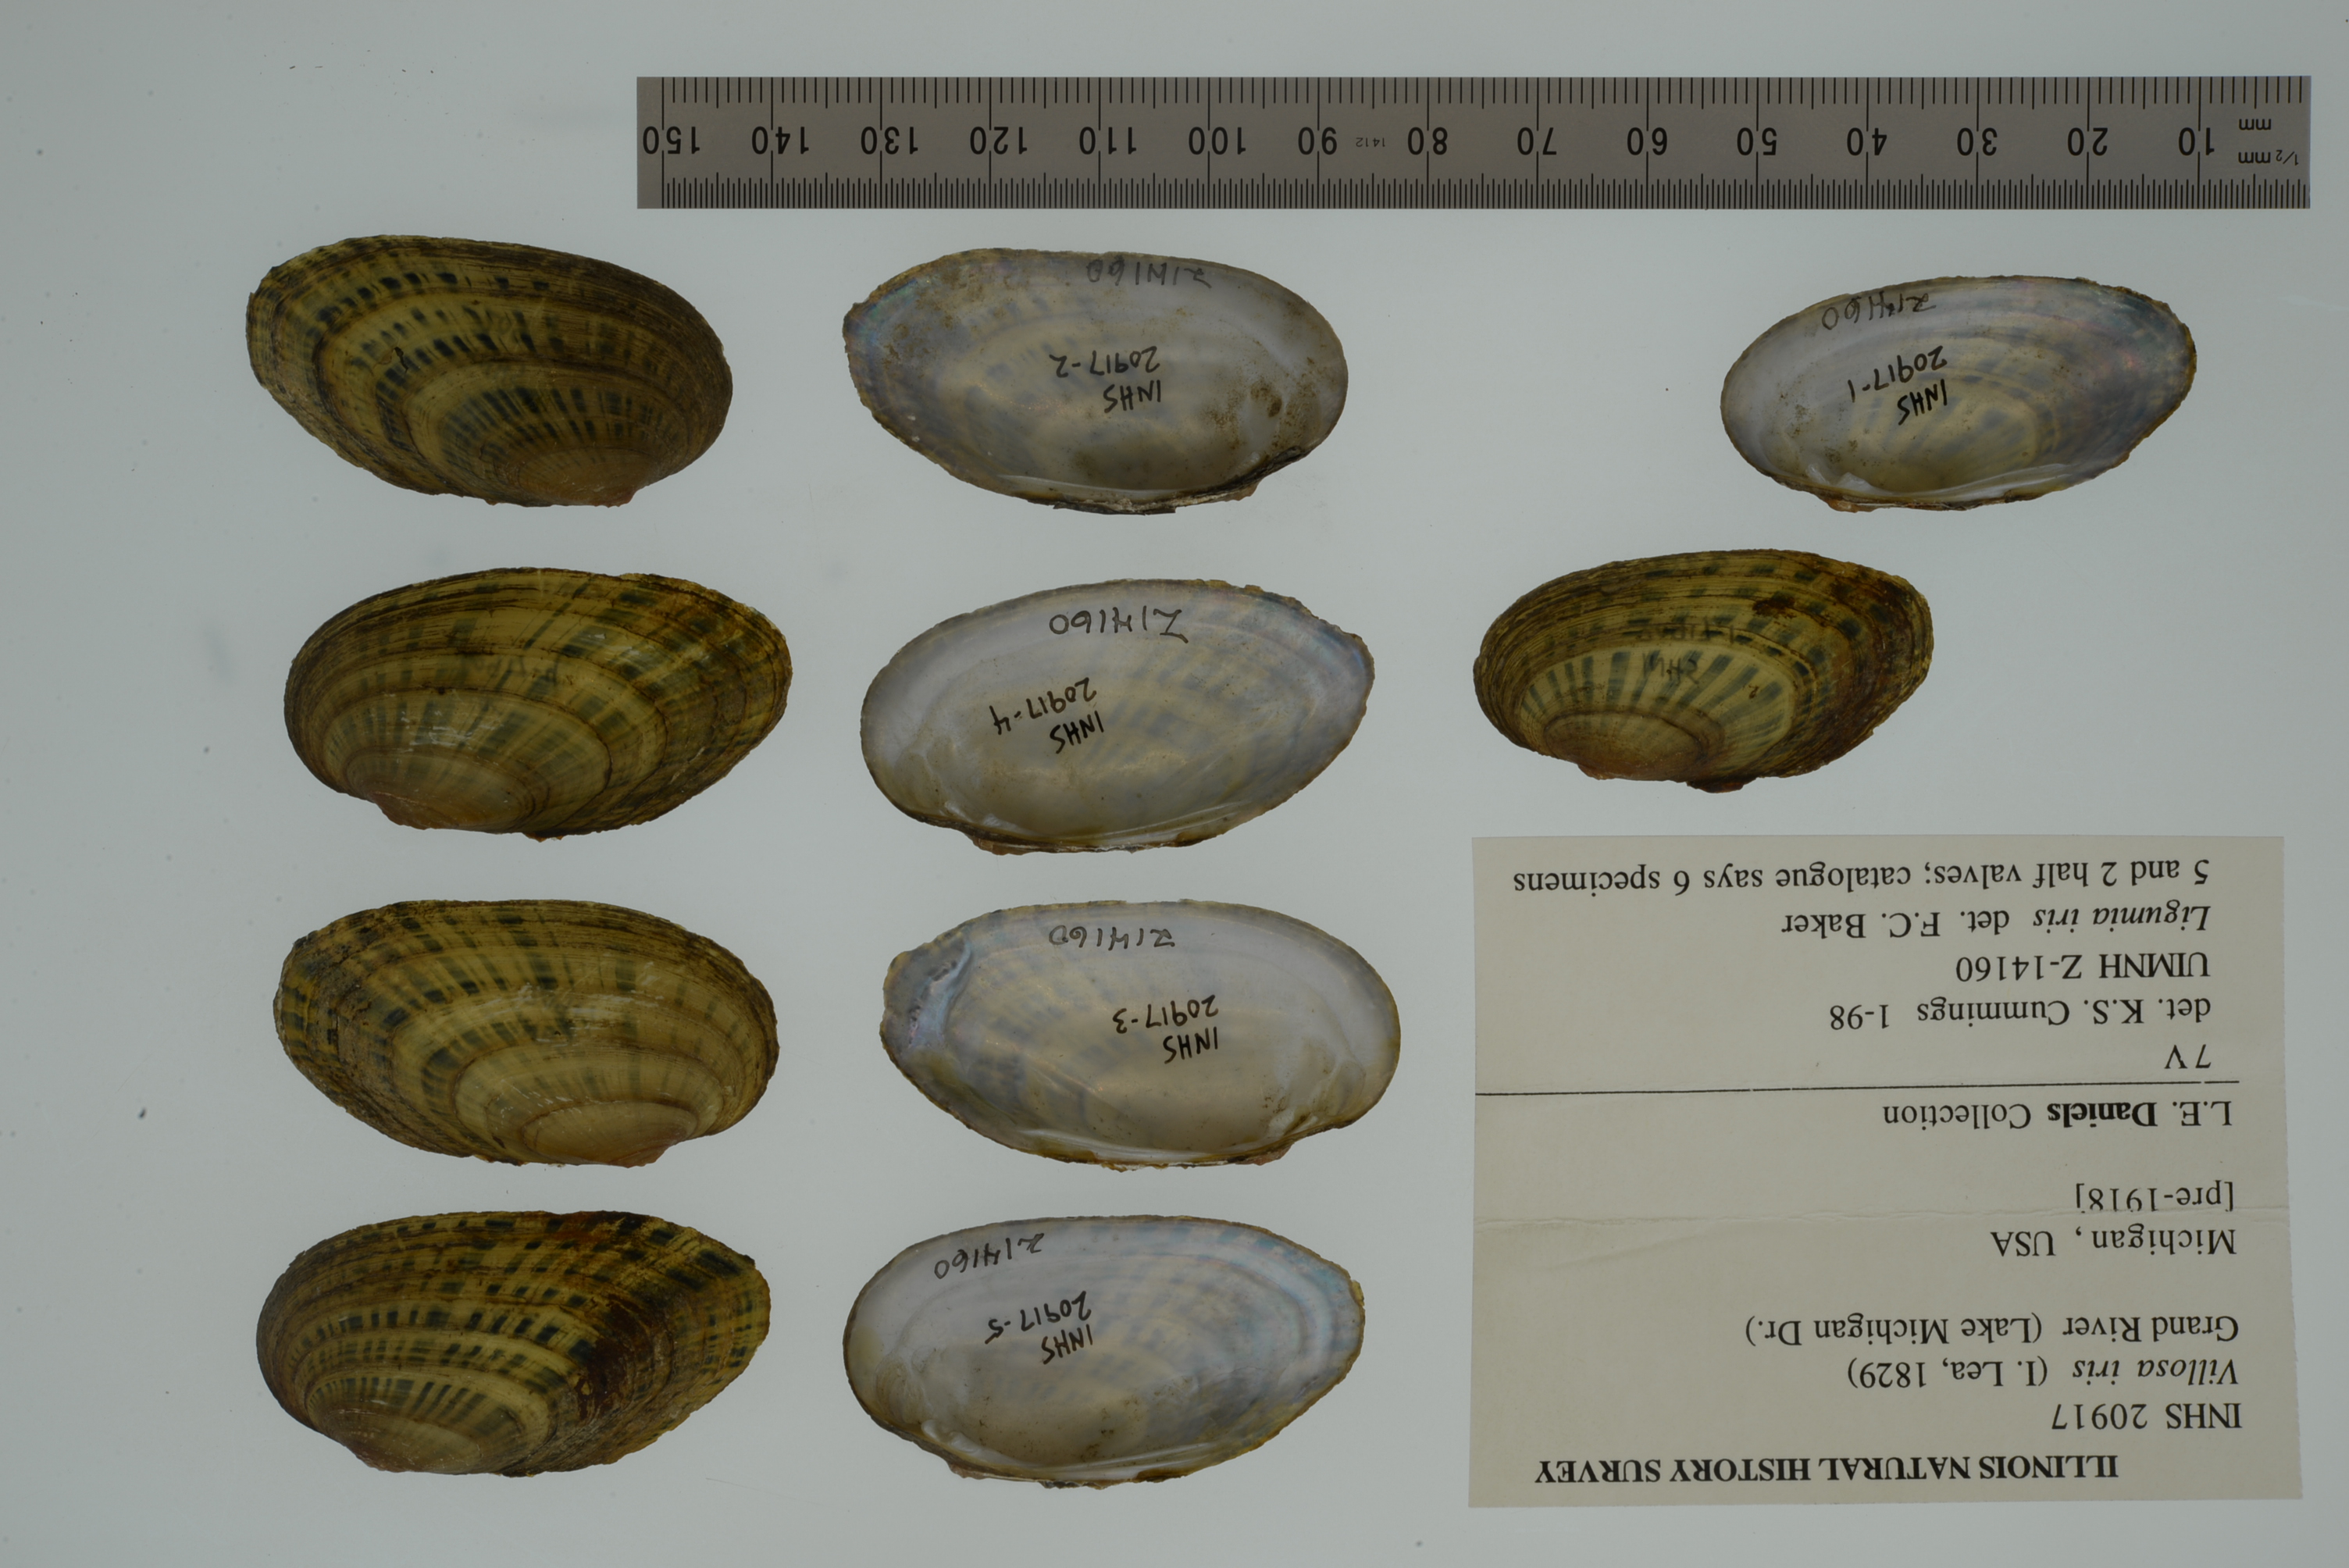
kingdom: Animalia
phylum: Mollusca
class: Bivalvia
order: Unionida
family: Unionidae
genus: Cambarunio
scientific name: Cambarunio iris
